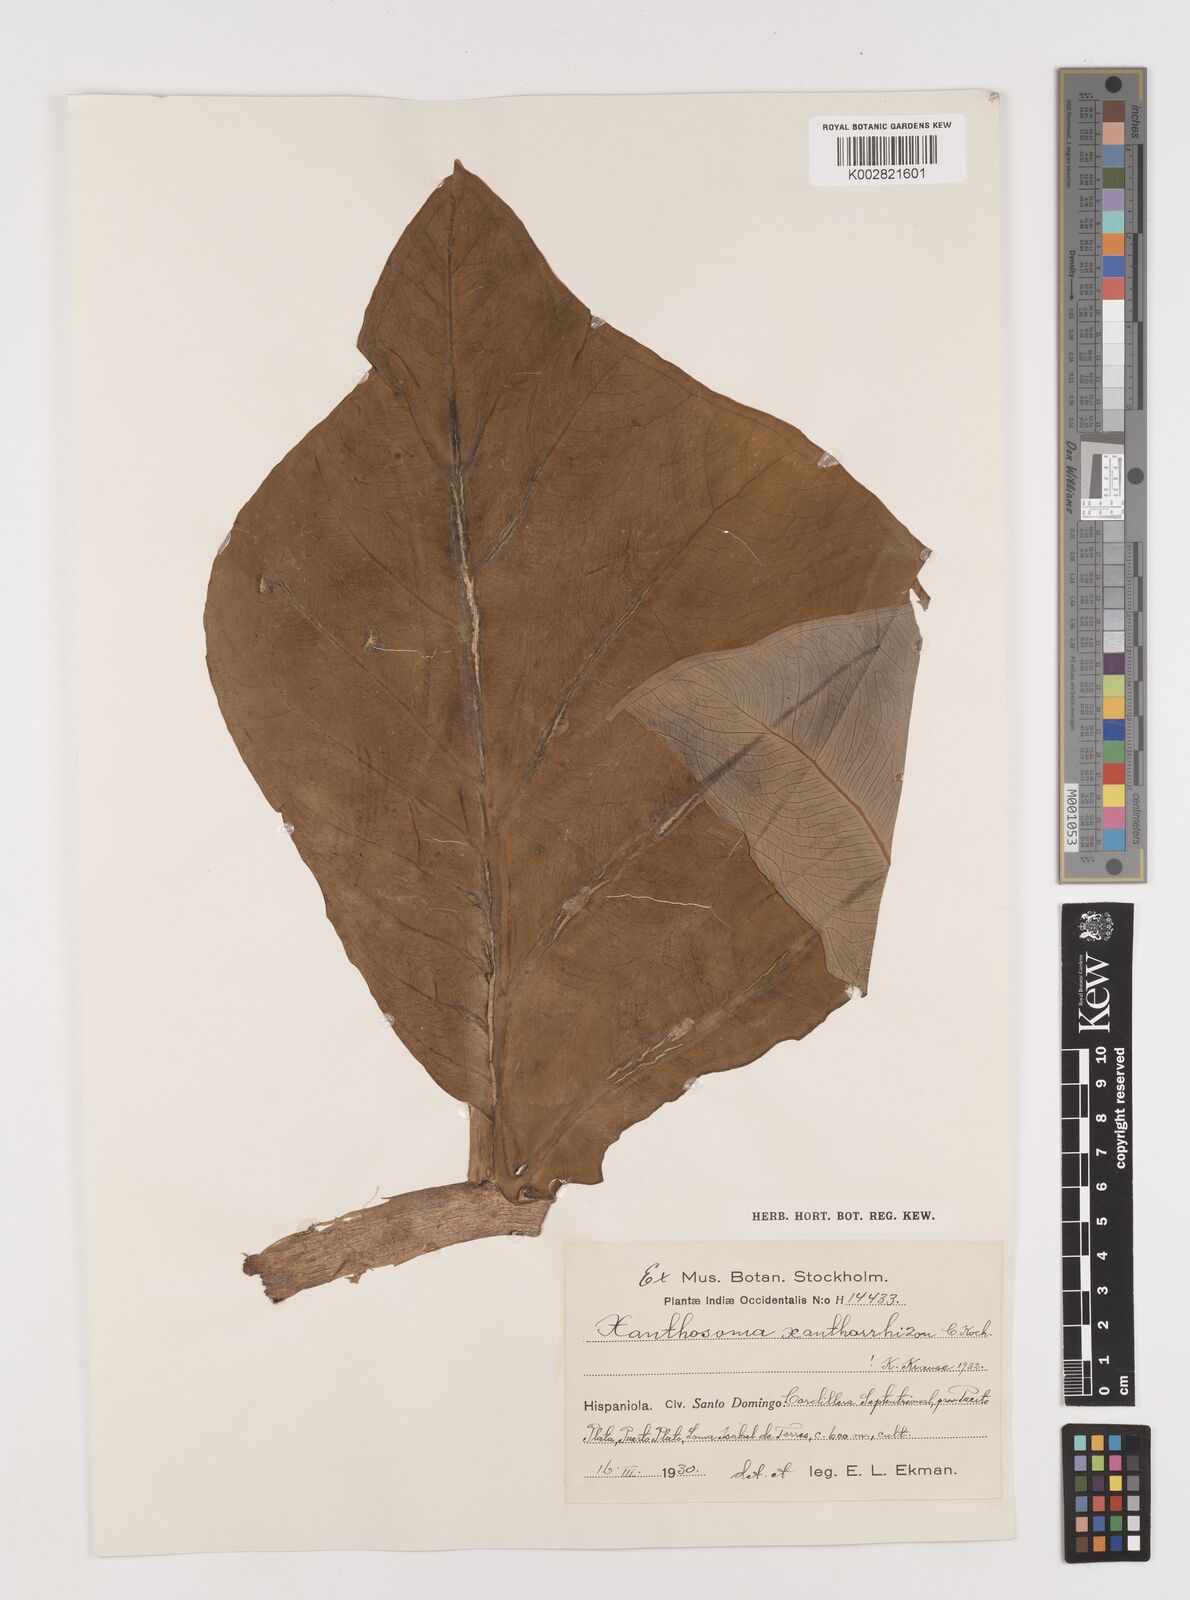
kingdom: Plantae
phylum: Tracheophyta
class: Liliopsida
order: Alismatales
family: Araceae
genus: Xanthosoma
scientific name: Xanthosoma sagittifolium
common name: Arrowleaf elephant's ear
